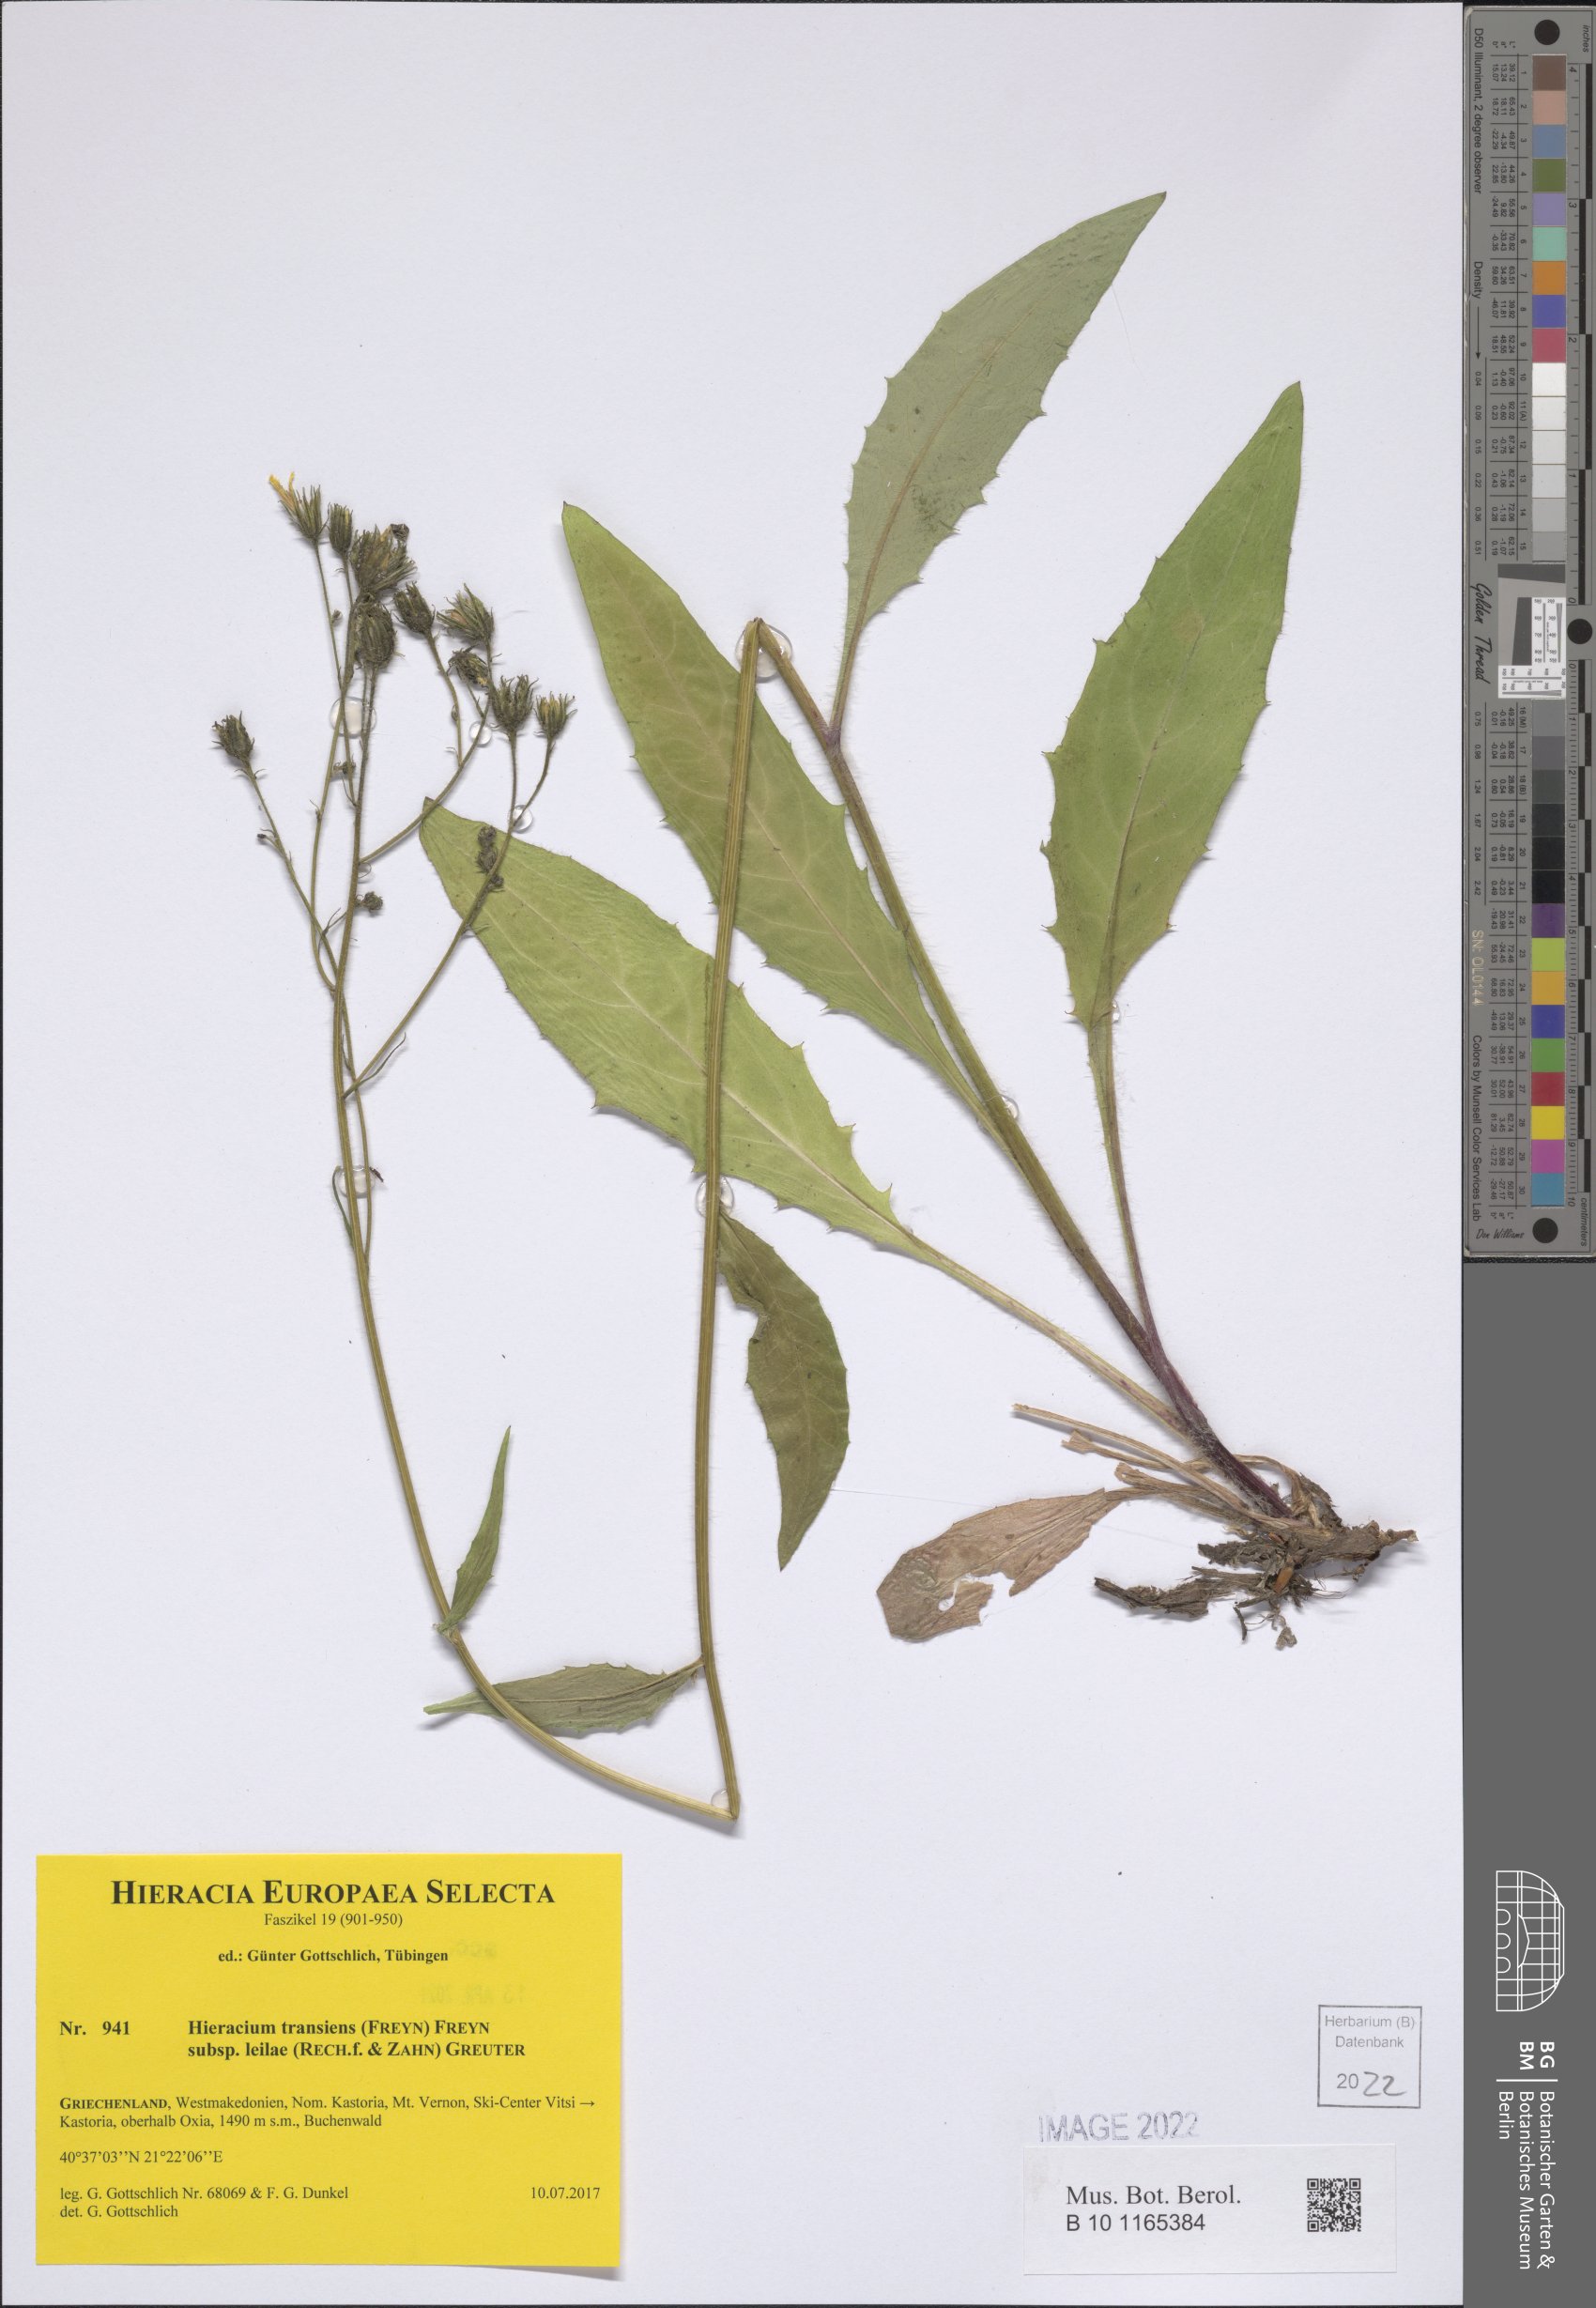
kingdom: Plantae
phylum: Tracheophyta
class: Magnoliopsida
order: Asterales
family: Asteraceae
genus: Hieracium
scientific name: Hieracium transiens
